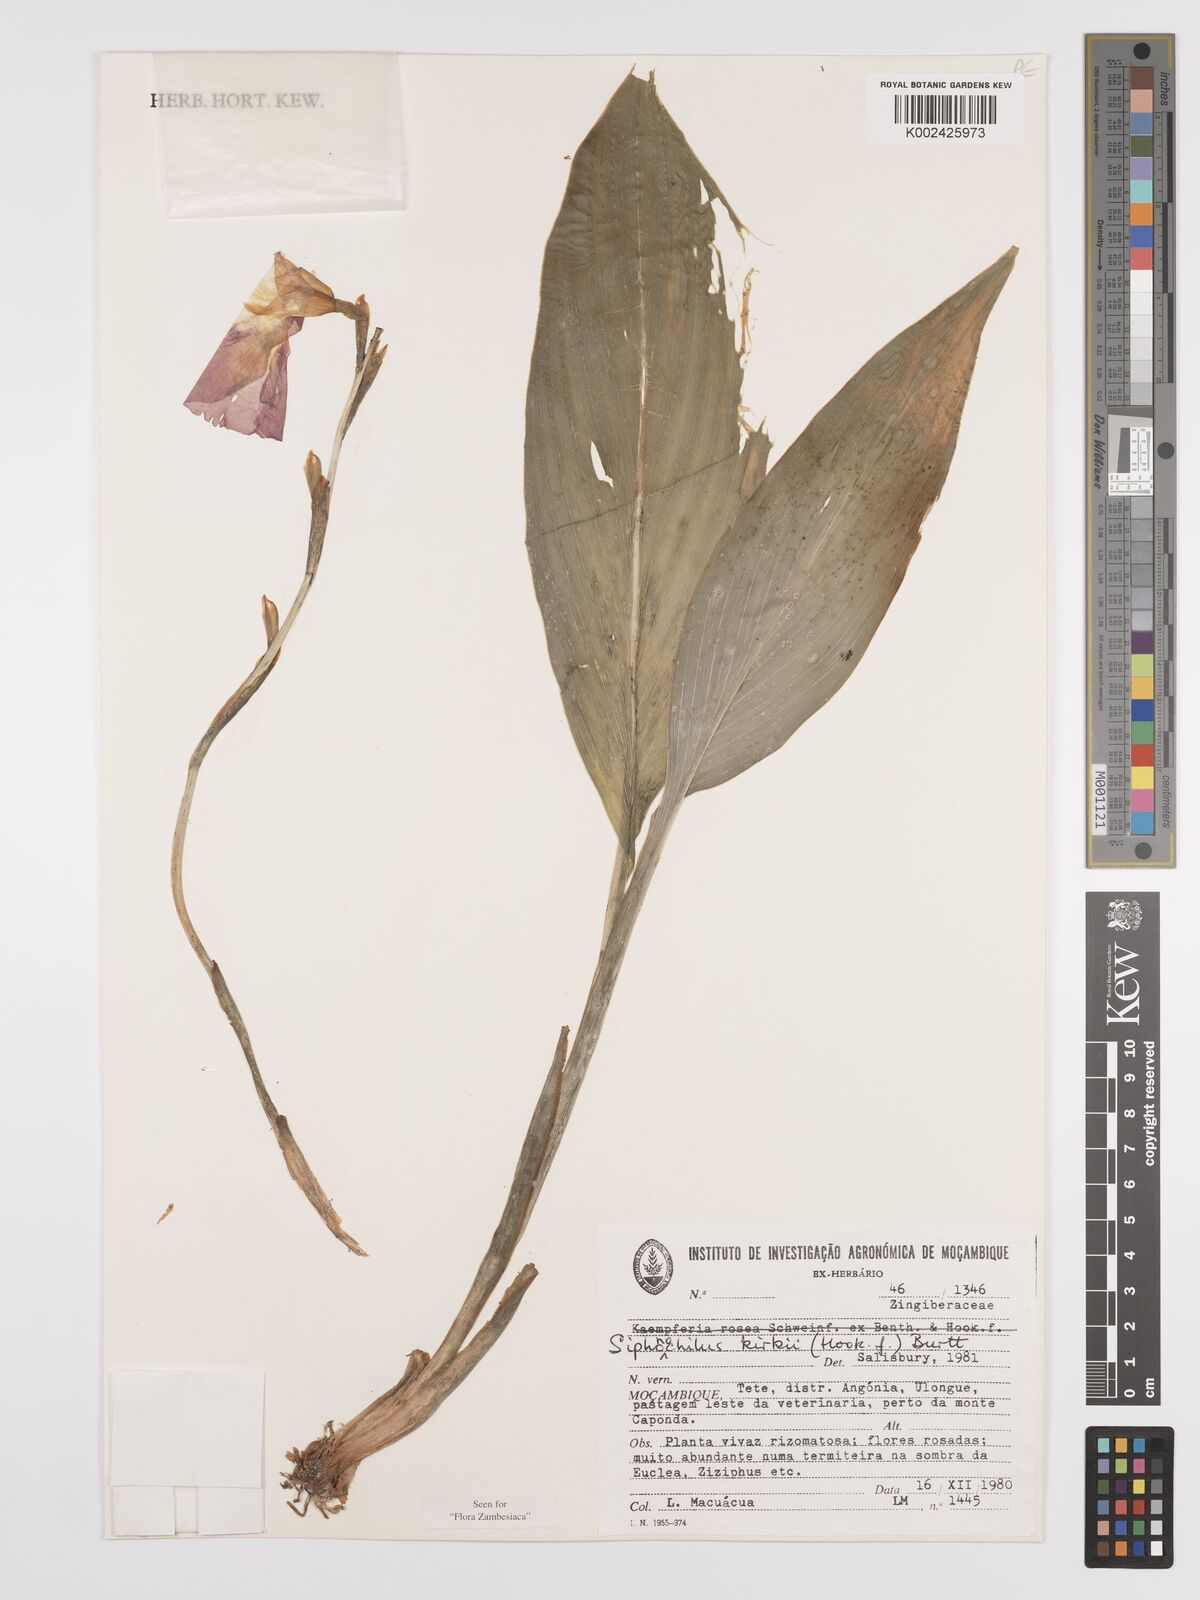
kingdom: Plantae
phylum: Tracheophyta
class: Liliopsida
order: Zingiberales
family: Zingiberaceae
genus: Siphonochilus
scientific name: Siphonochilus kirkii
